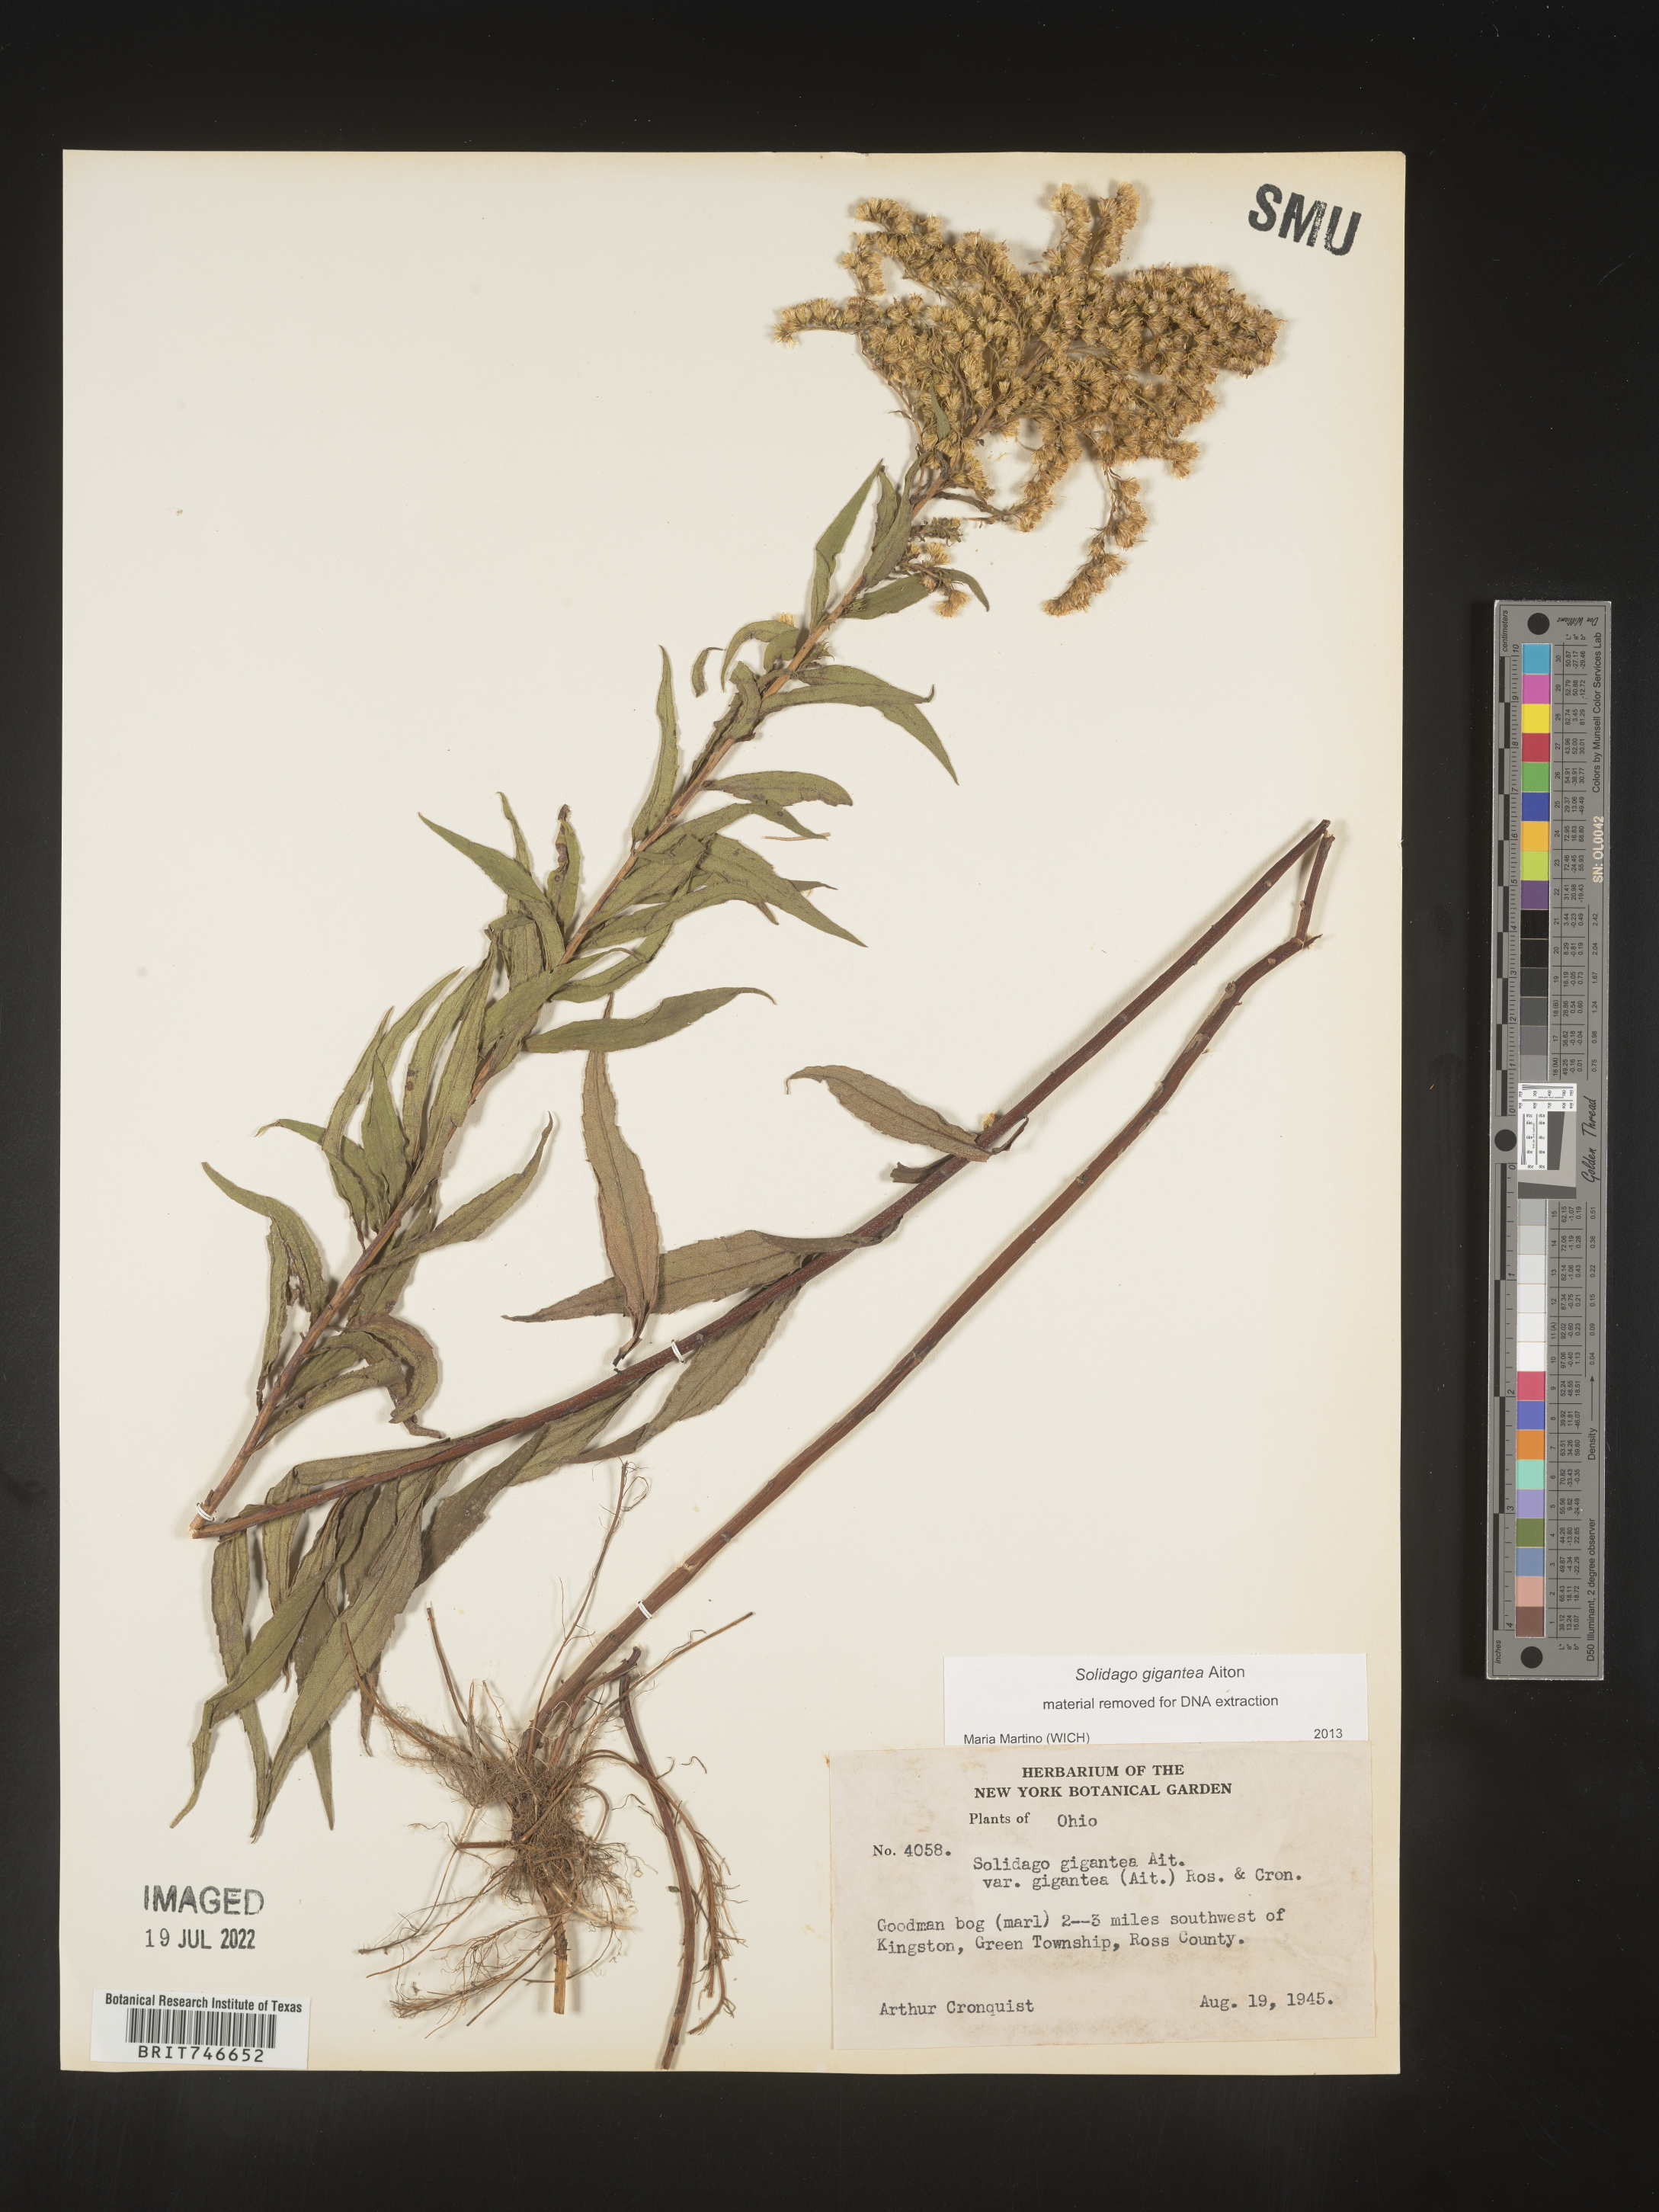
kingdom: Plantae
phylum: Tracheophyta
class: Magnoliopsida
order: Asterales
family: Asteraceae
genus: Solidago
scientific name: Solidago gigantea
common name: Giant goldenrod
